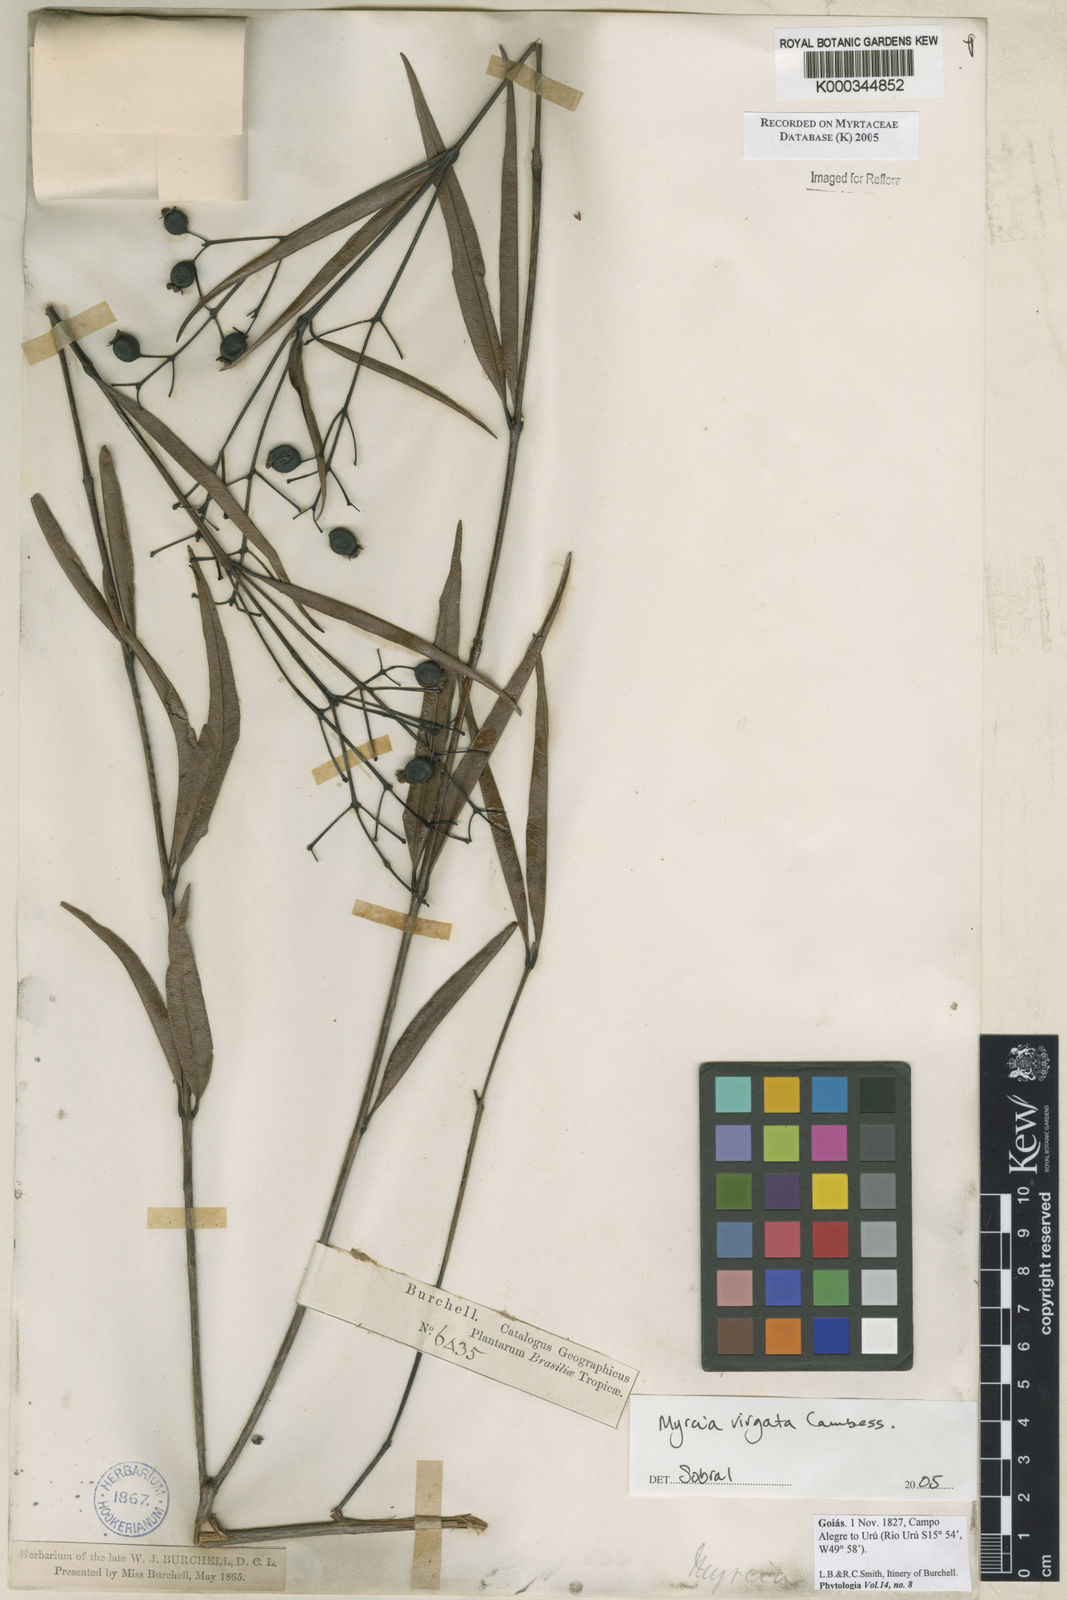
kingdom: Plantae
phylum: Tracheophyta
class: Magnoliopsida
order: Myrtales
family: Myrtaceae
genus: Myrcia
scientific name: Myrcia virgata
